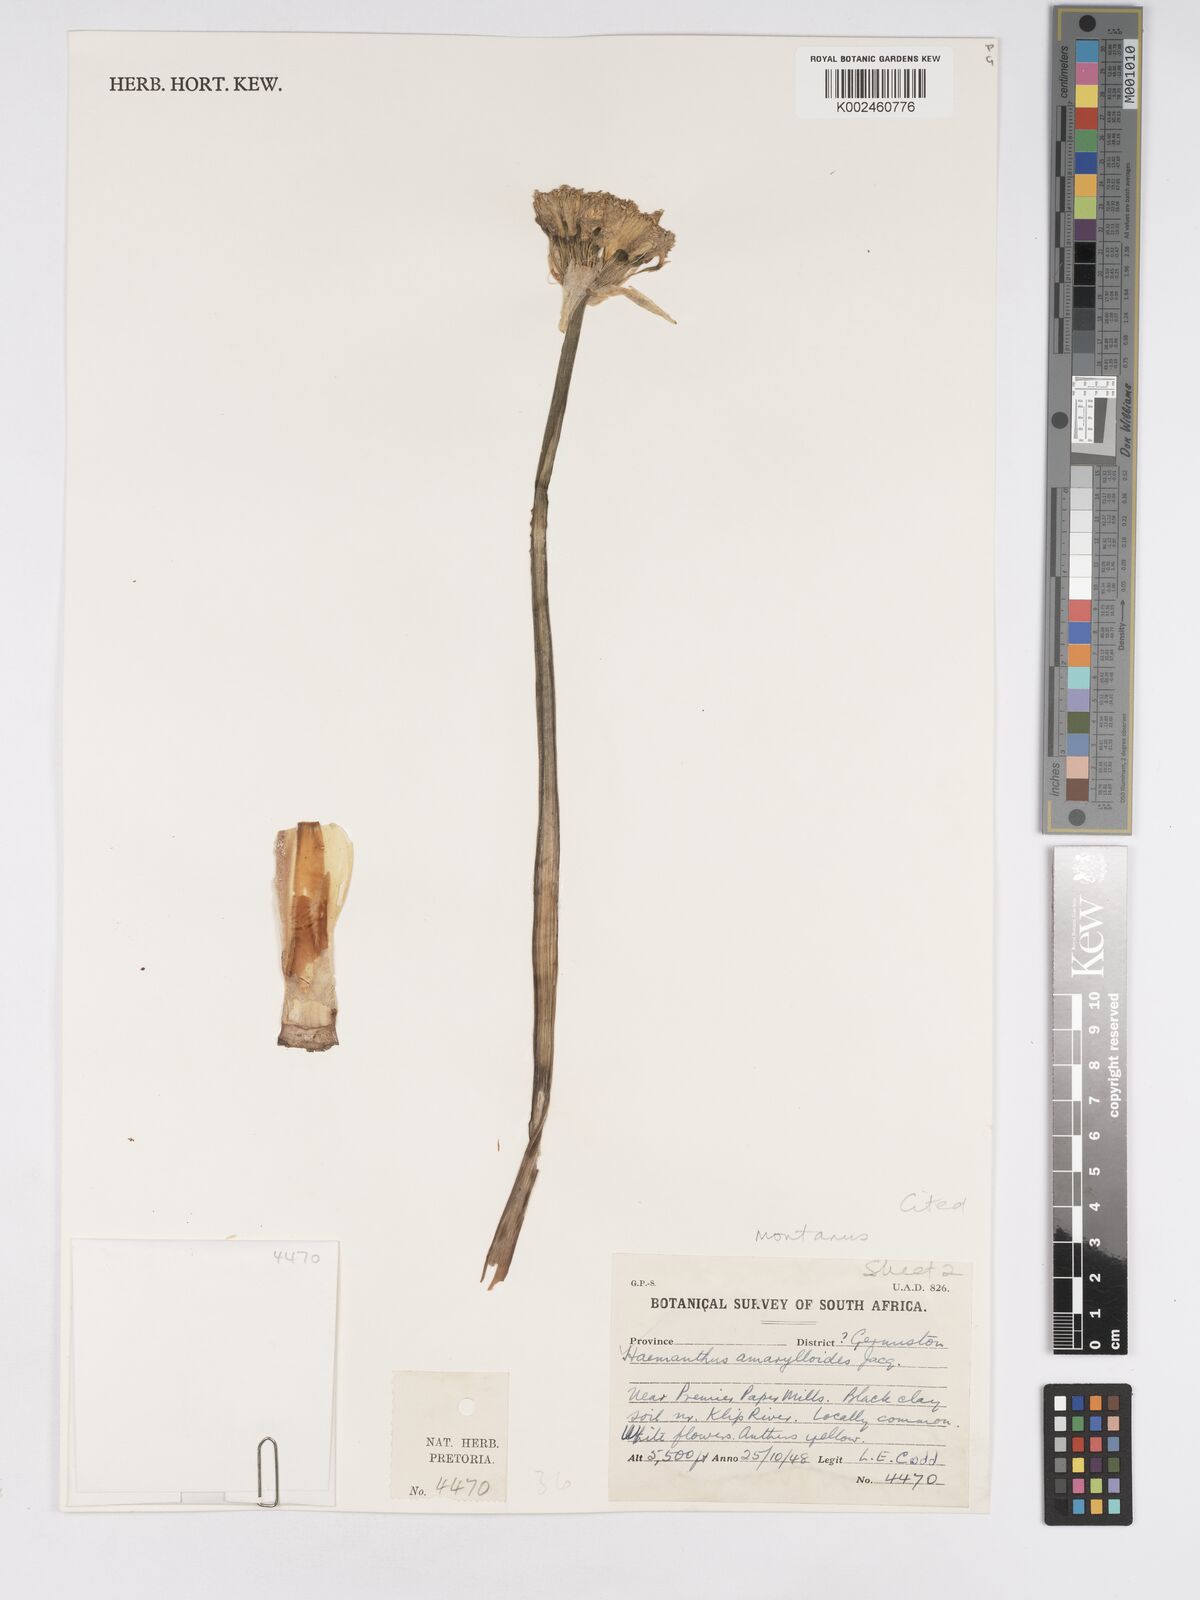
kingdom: Plantae
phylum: Tracheophyta
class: Liliopsida
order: Asparagales
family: Amaryllidaceae
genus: Haemanthus
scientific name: Haemanthus montanus
